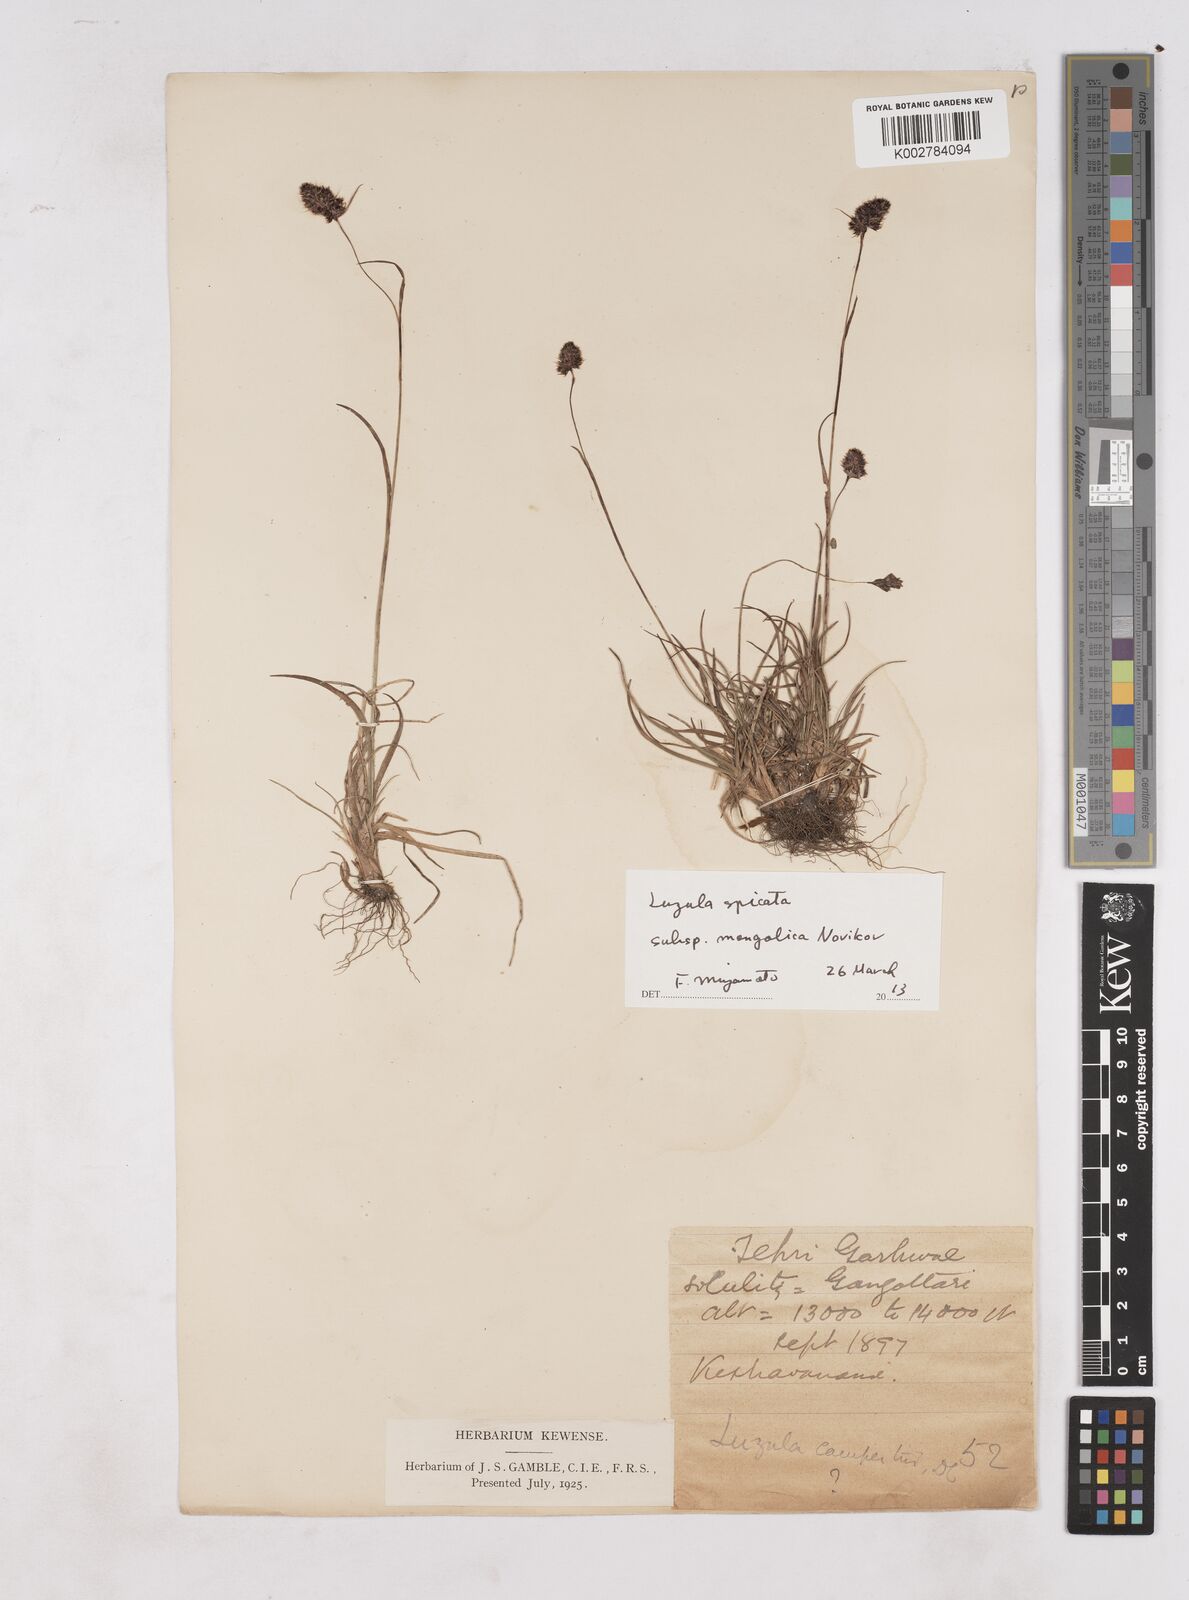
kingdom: Plantae
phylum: Tracheophyta
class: Liliopsida
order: Poales
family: Juncaceae
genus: Luzula
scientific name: Luzula spicata
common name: Spiked wood-rush
